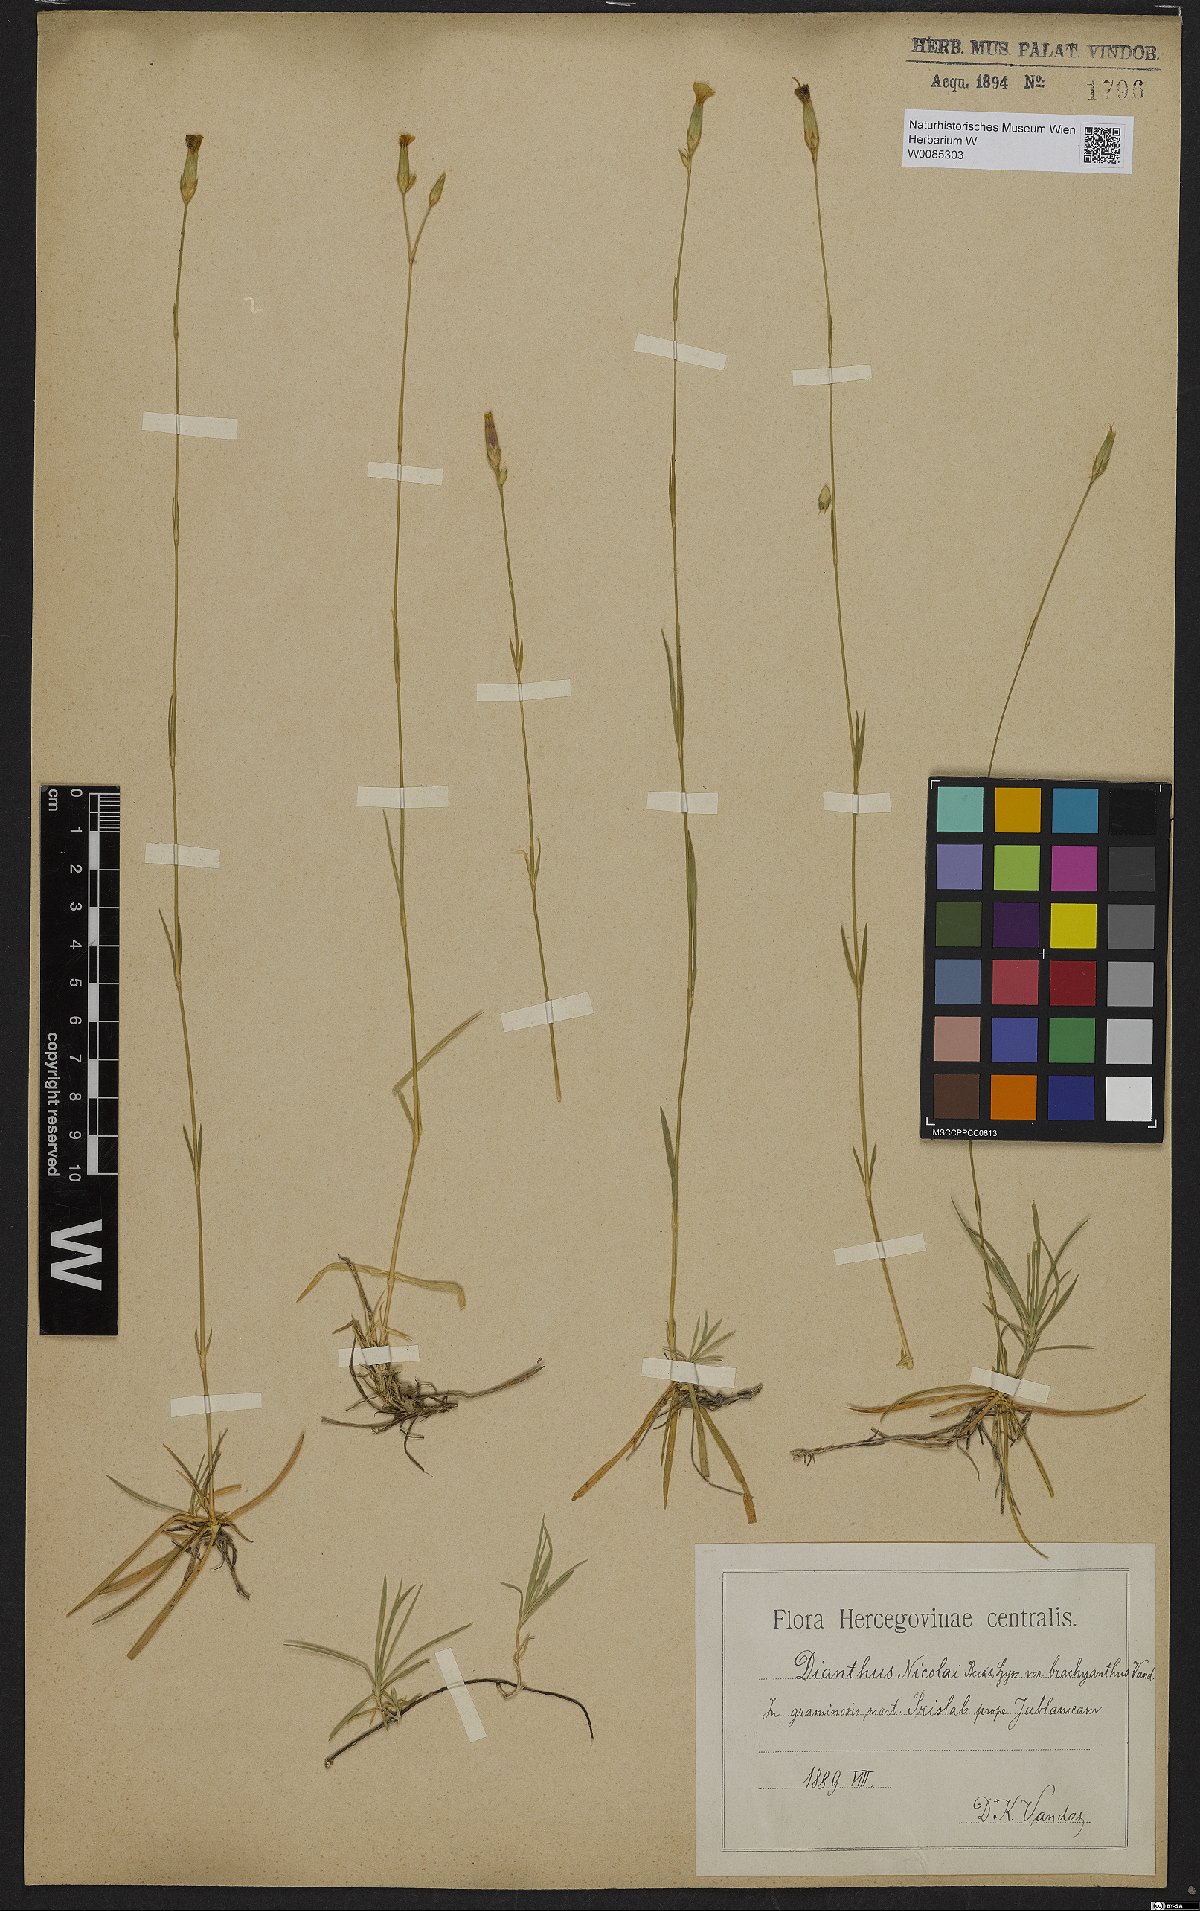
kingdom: Plantae
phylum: Tracheophyta
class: Magnoliopsida
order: Caryophyllales
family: Caryophyllaceae
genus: Dianthus
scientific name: Dianthus petraeus
